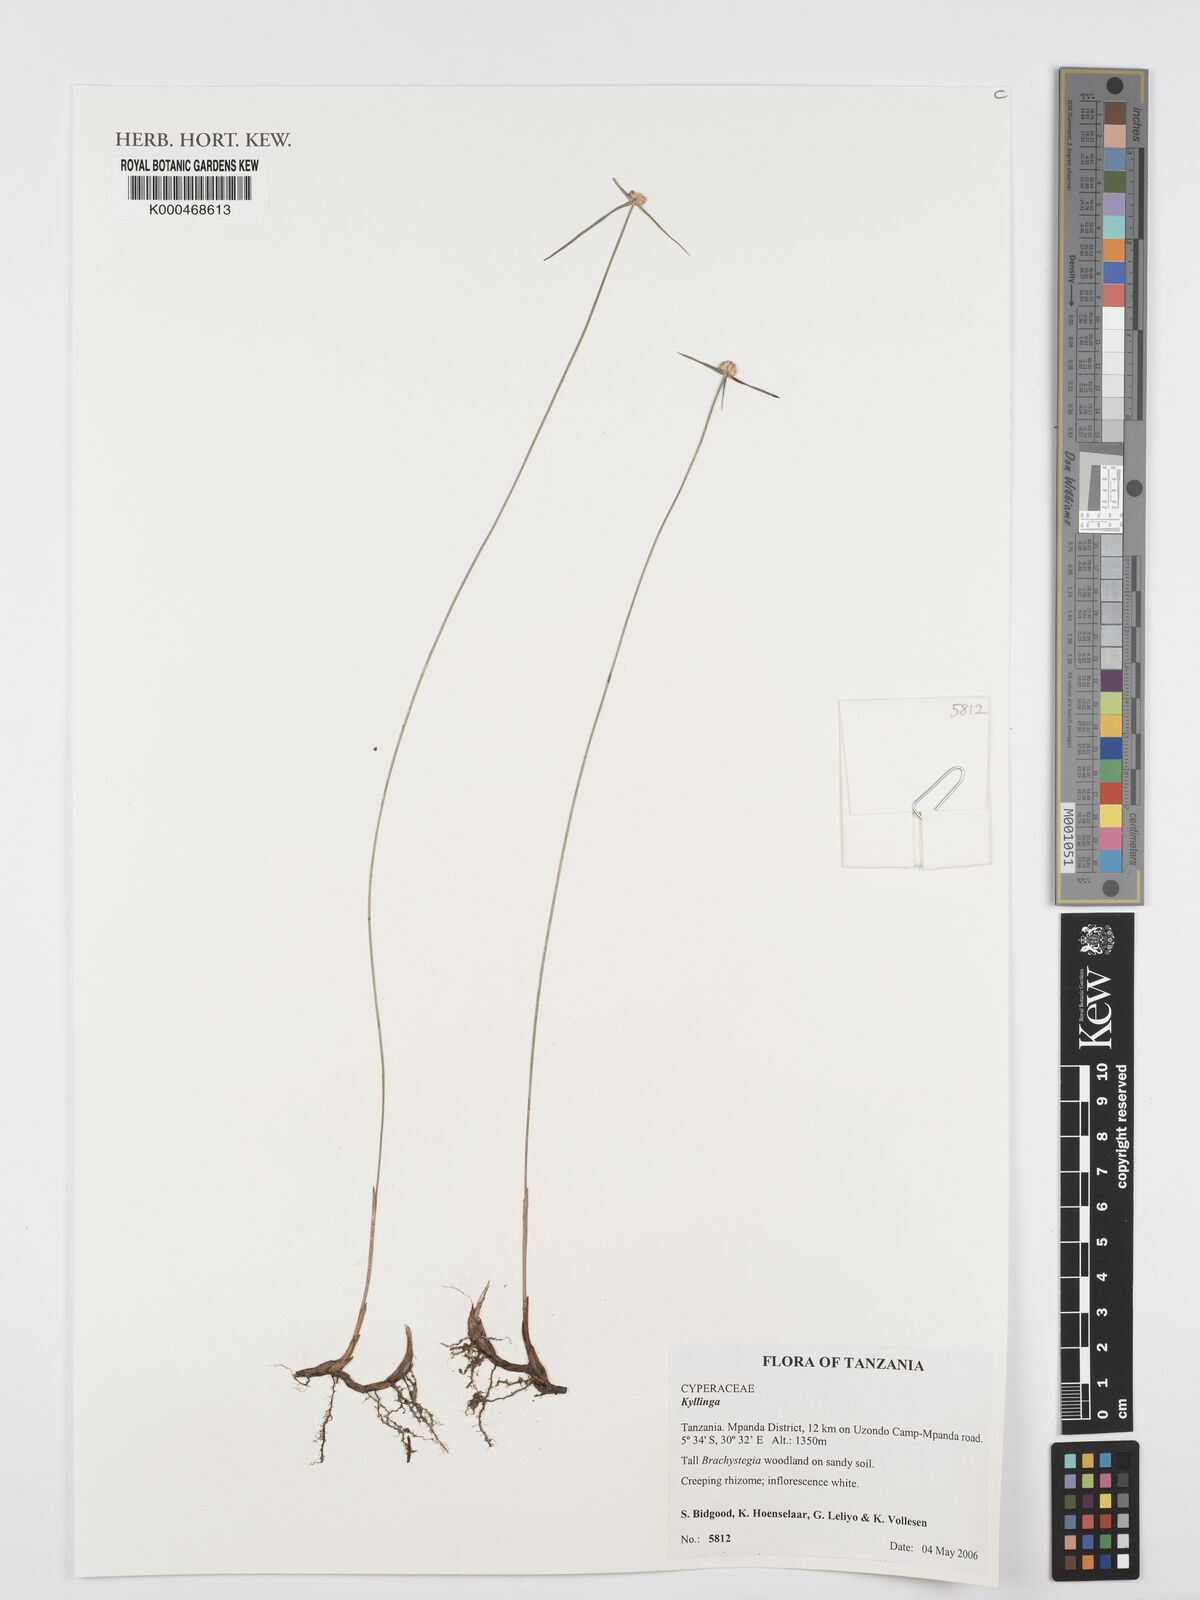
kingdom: Plantae
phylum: Tracheophyta
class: Liliopsida
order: Poales
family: Cyperaceae
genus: Cyperus
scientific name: Cyperus
